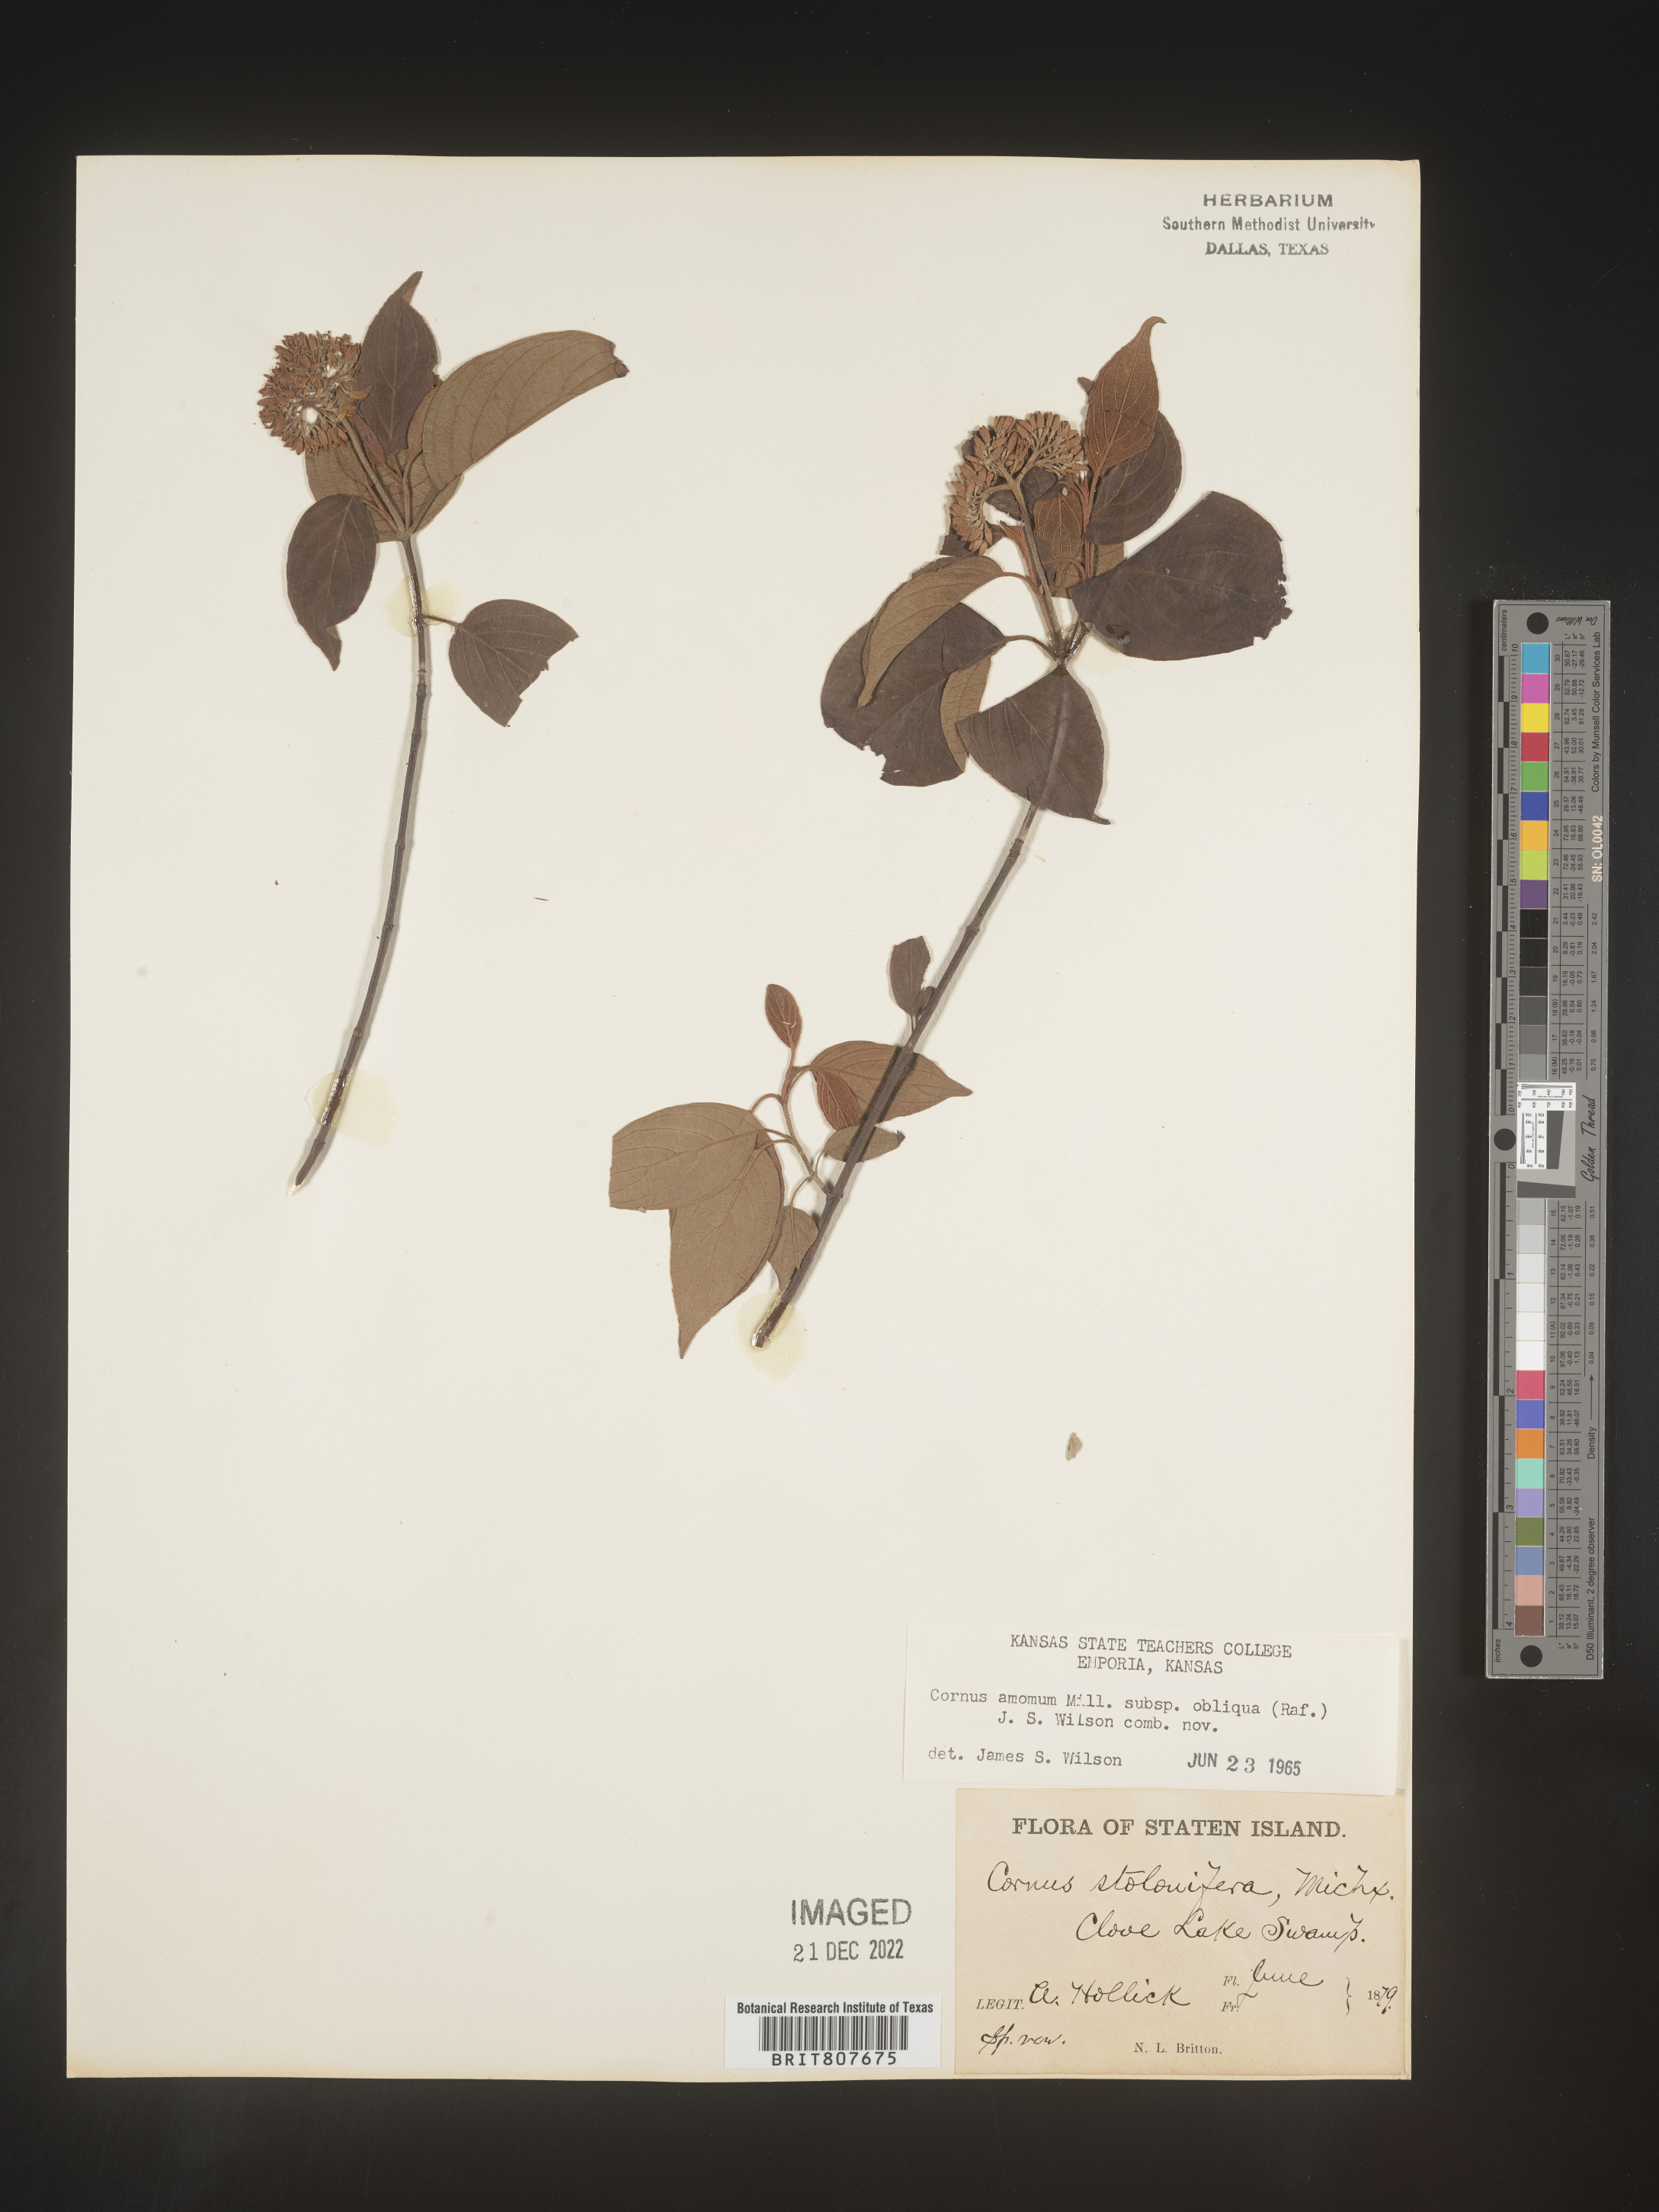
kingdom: Plantae
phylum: Tracheophyta
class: Magnoliopsida
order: Cornales
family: Cornaceae
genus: Cornus
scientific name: Cornus obliqua
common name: Pale dogwood
